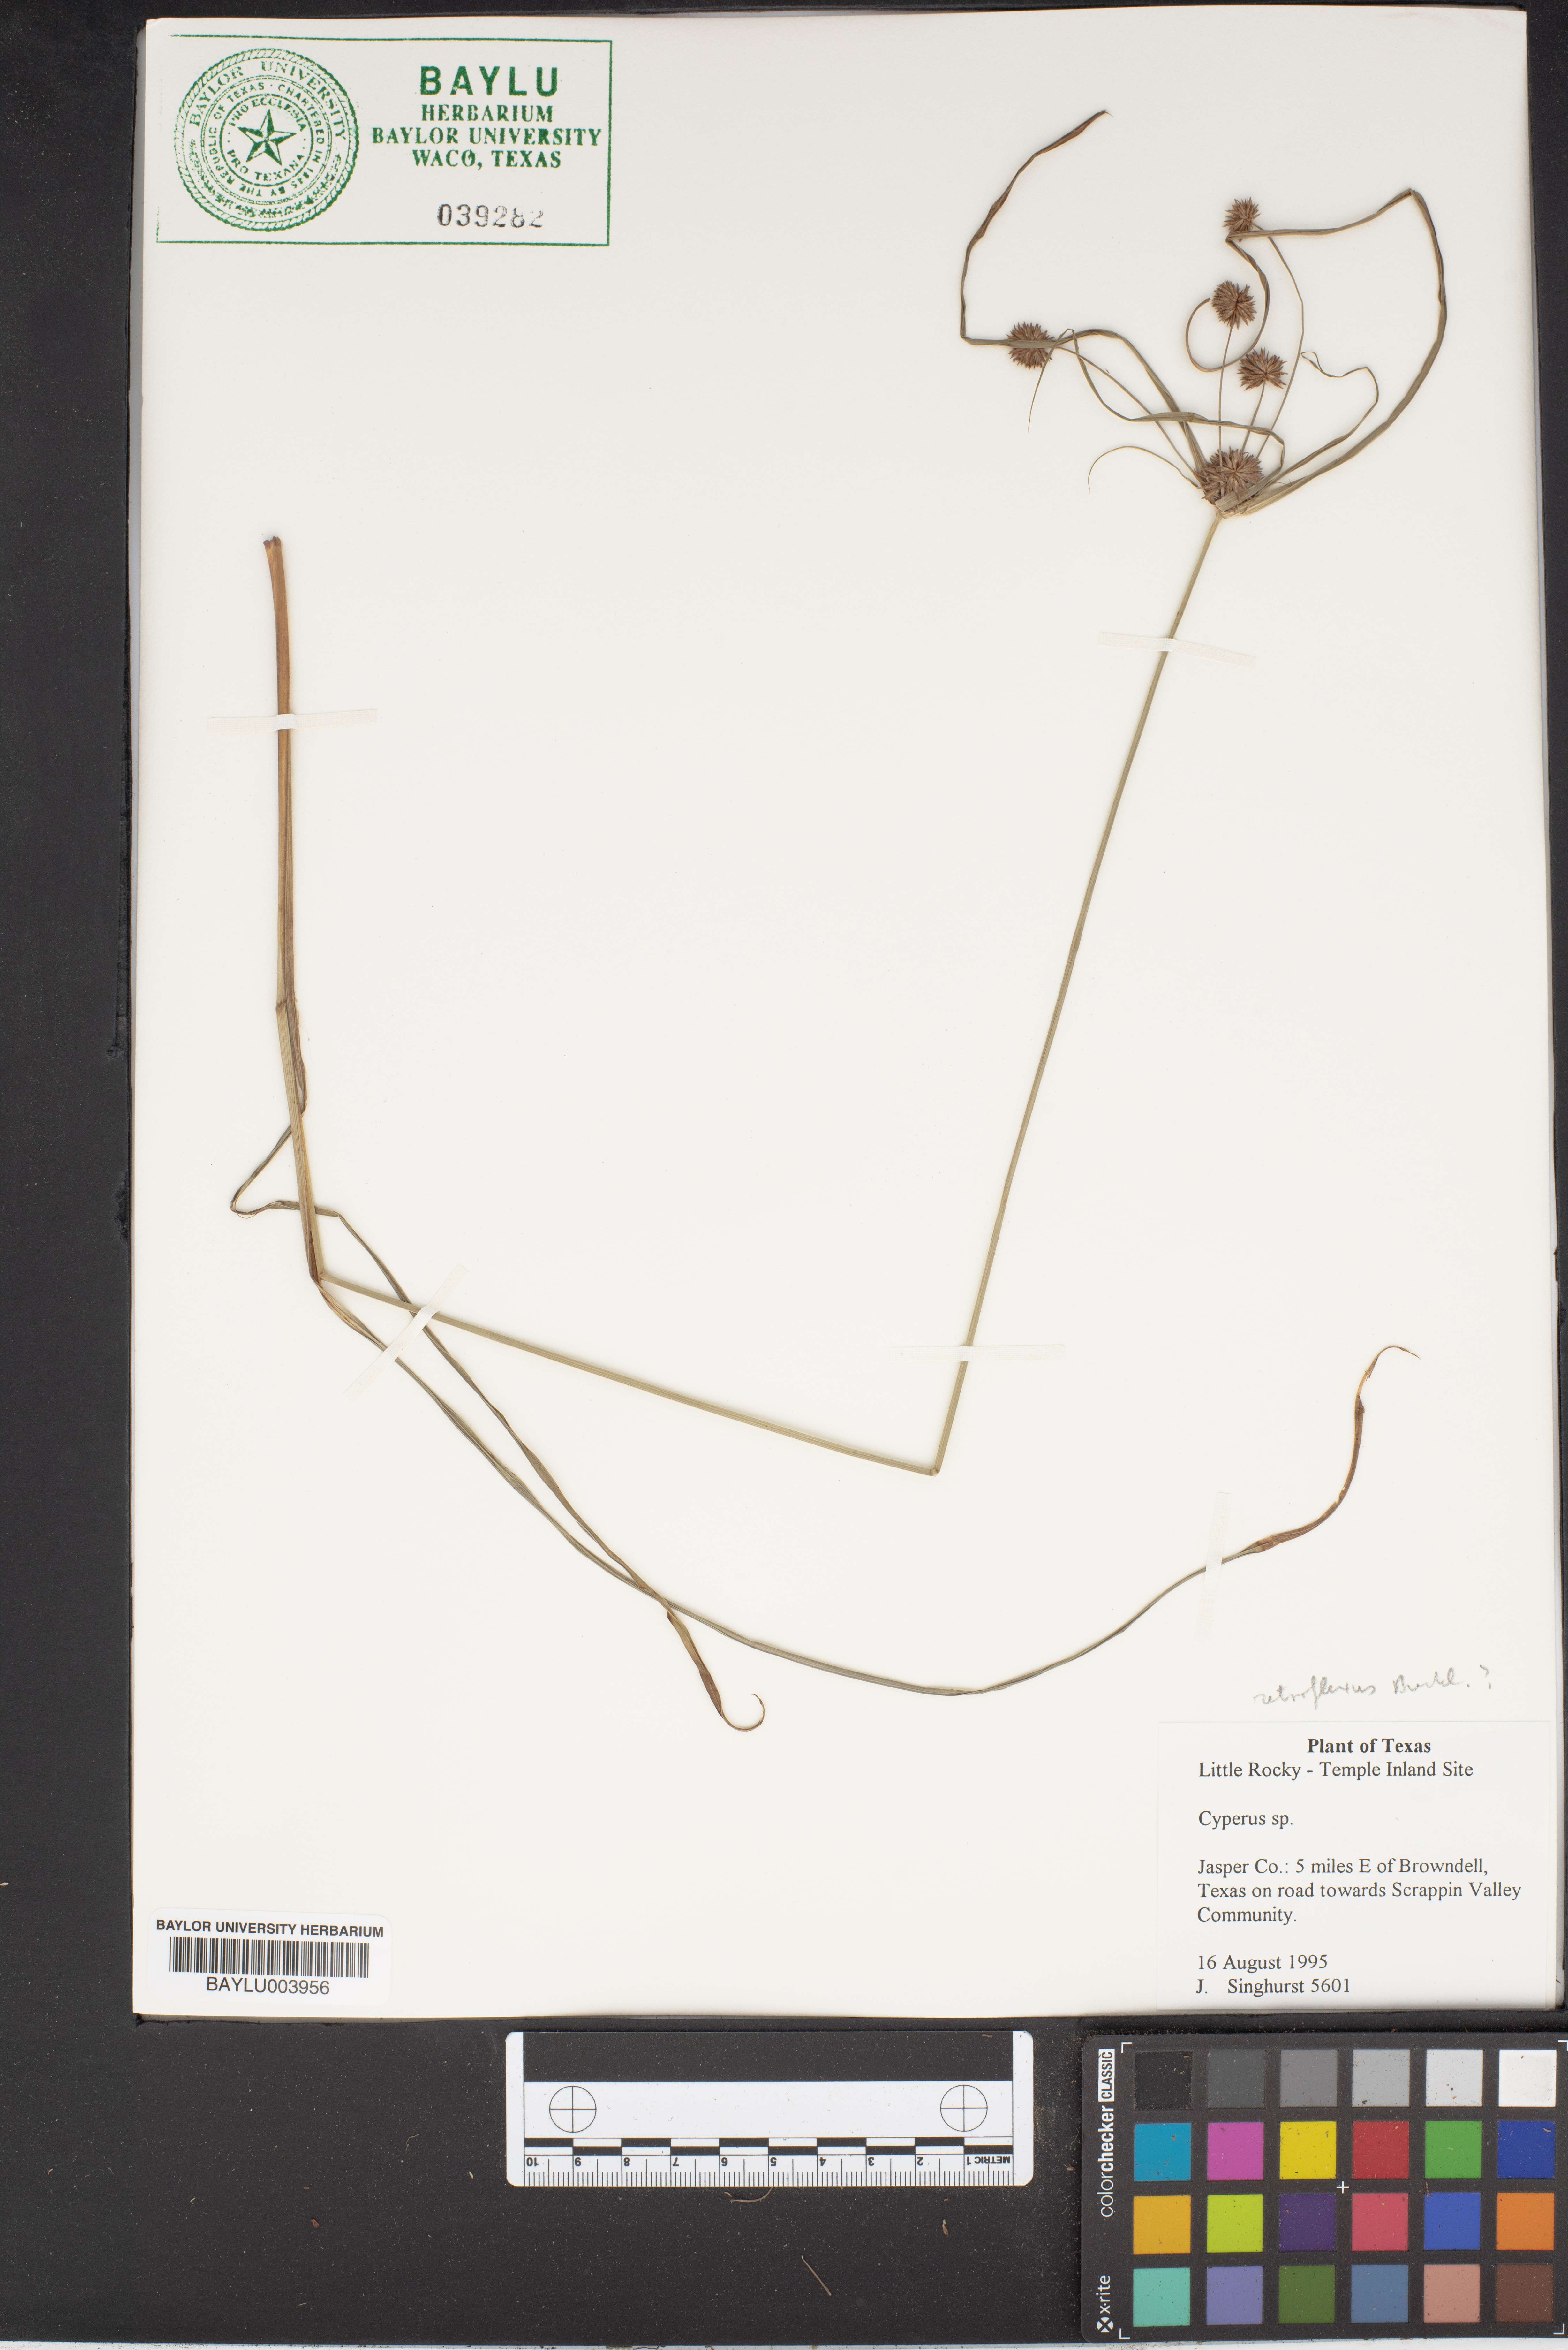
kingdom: Plantae
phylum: Tracheophyta
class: Liliopsida
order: Poales
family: Cyperaceae
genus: Cyperus
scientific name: Cyperus retroflexus
